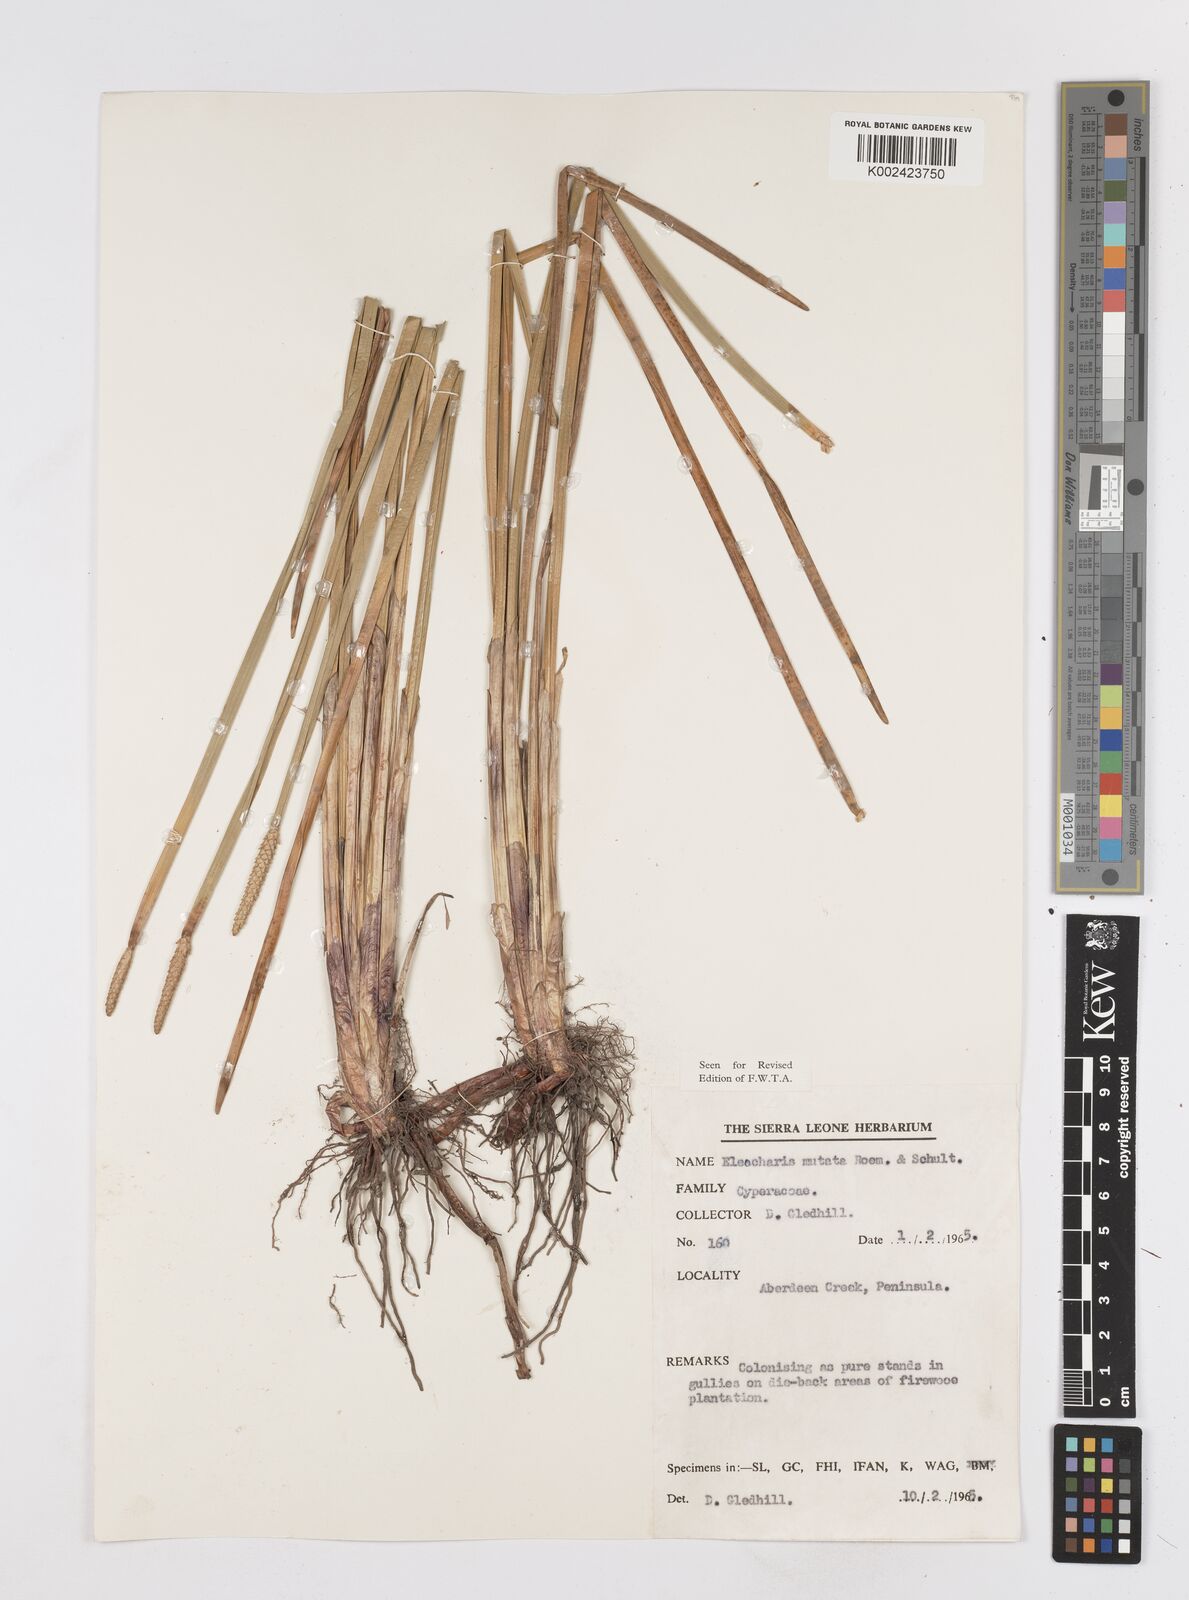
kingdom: Plantae
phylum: Tracheophyta
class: Liliopsida
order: Poales
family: Cyperaceae
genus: Eleocharis
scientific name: Eleocharis mutata
